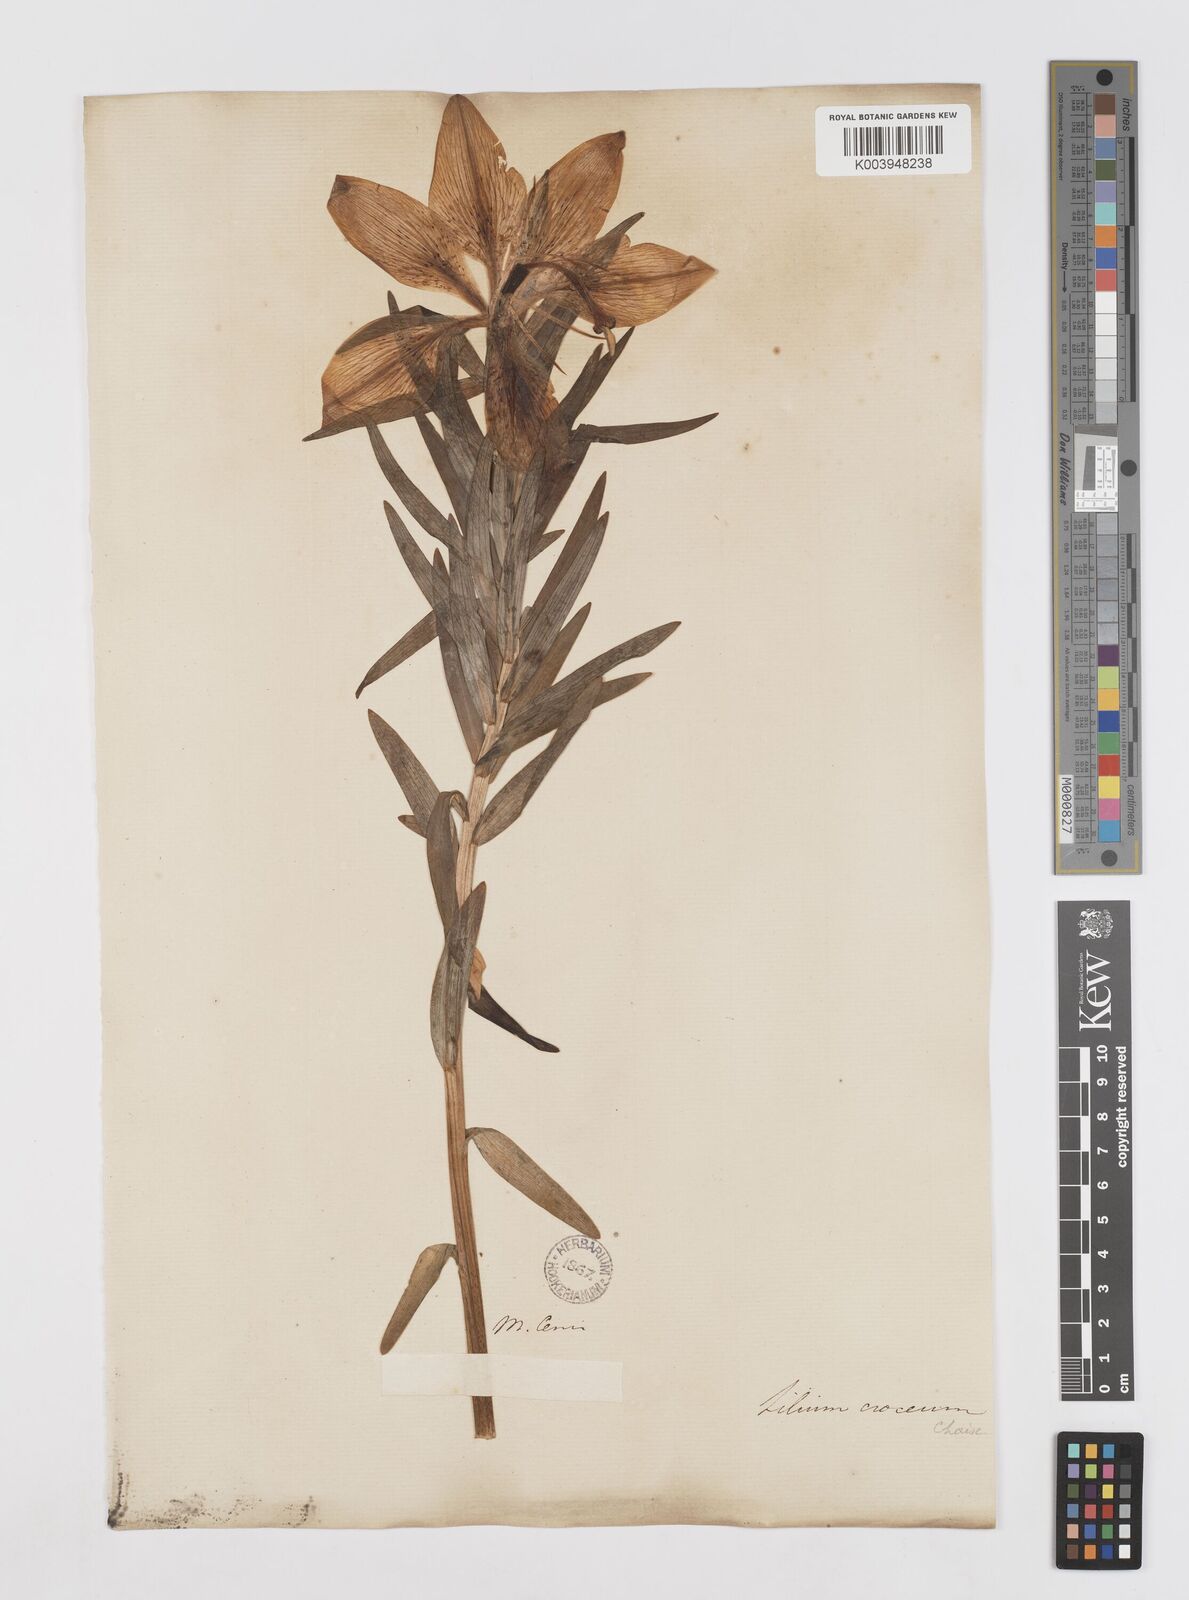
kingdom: Plantae
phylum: Tracheophyta
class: Liliopsida
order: Liliales
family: Liliaceae
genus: Lilium
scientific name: Lilium bulbiferum
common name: Orange lily
